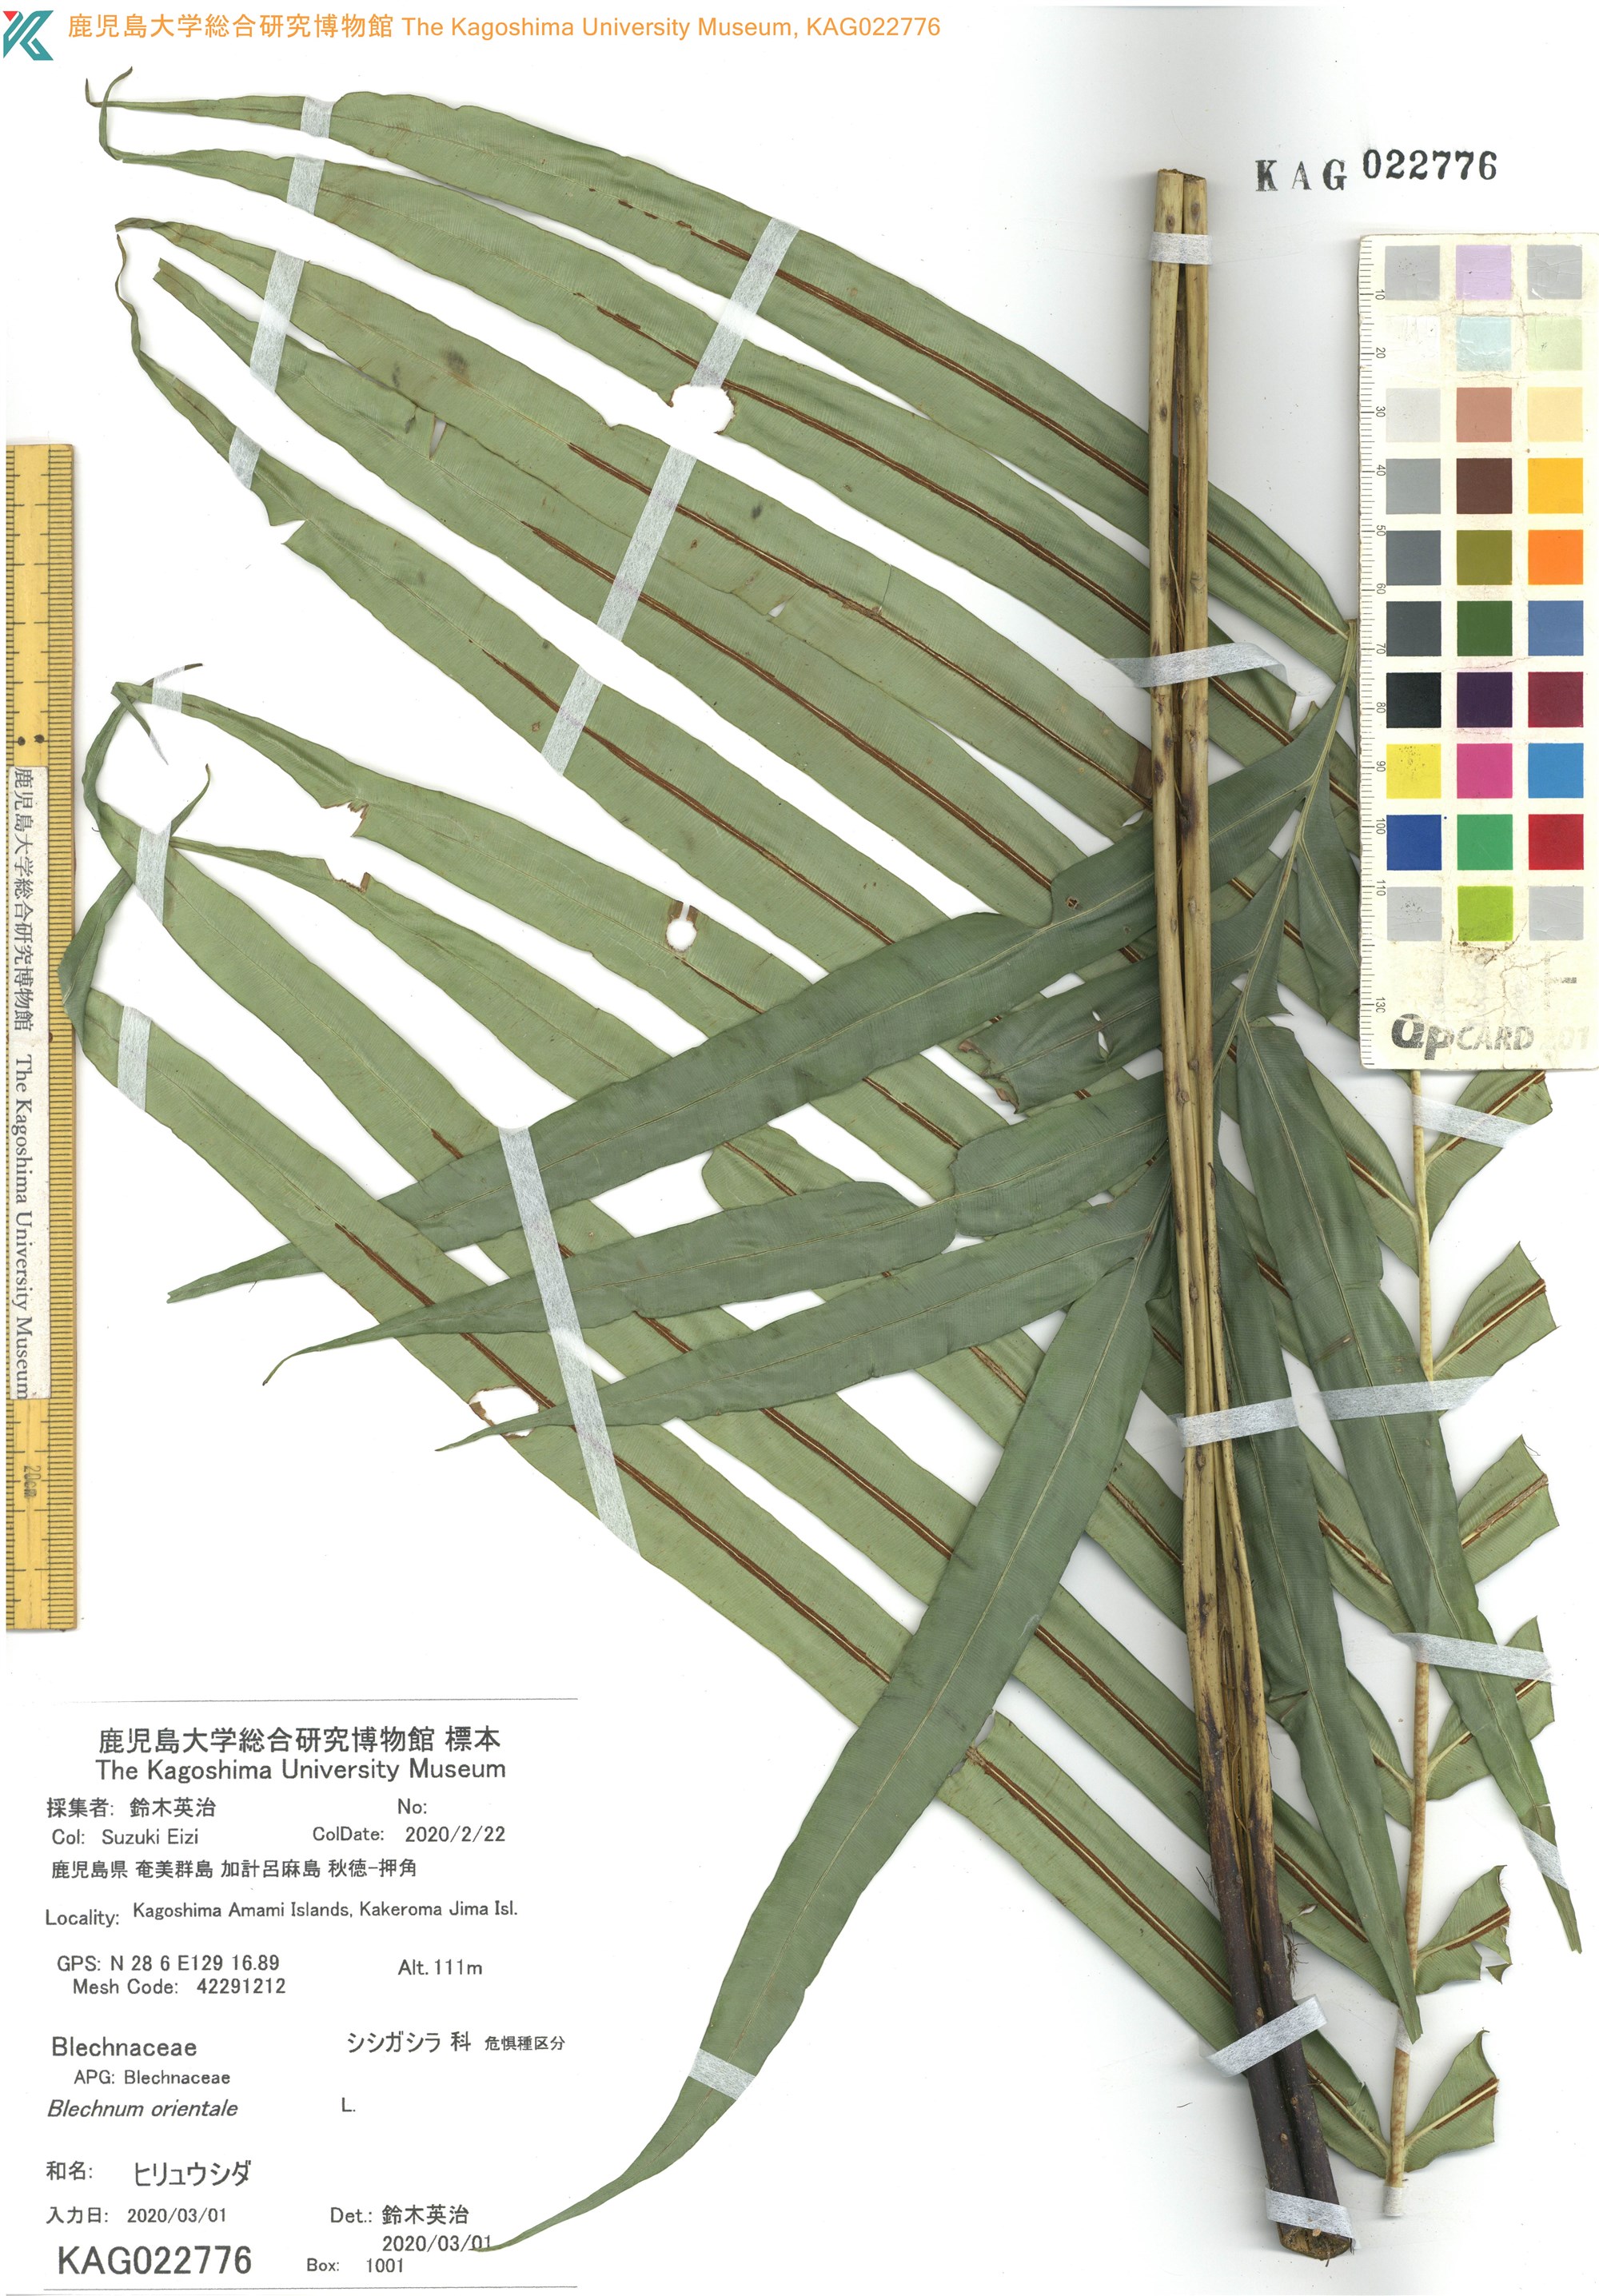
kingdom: Plantae
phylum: Tracheophyta
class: Polypodiopsida
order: Polypodiales
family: Blechnaceae
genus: Blechnopsis
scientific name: Blechnopsis orientalis
